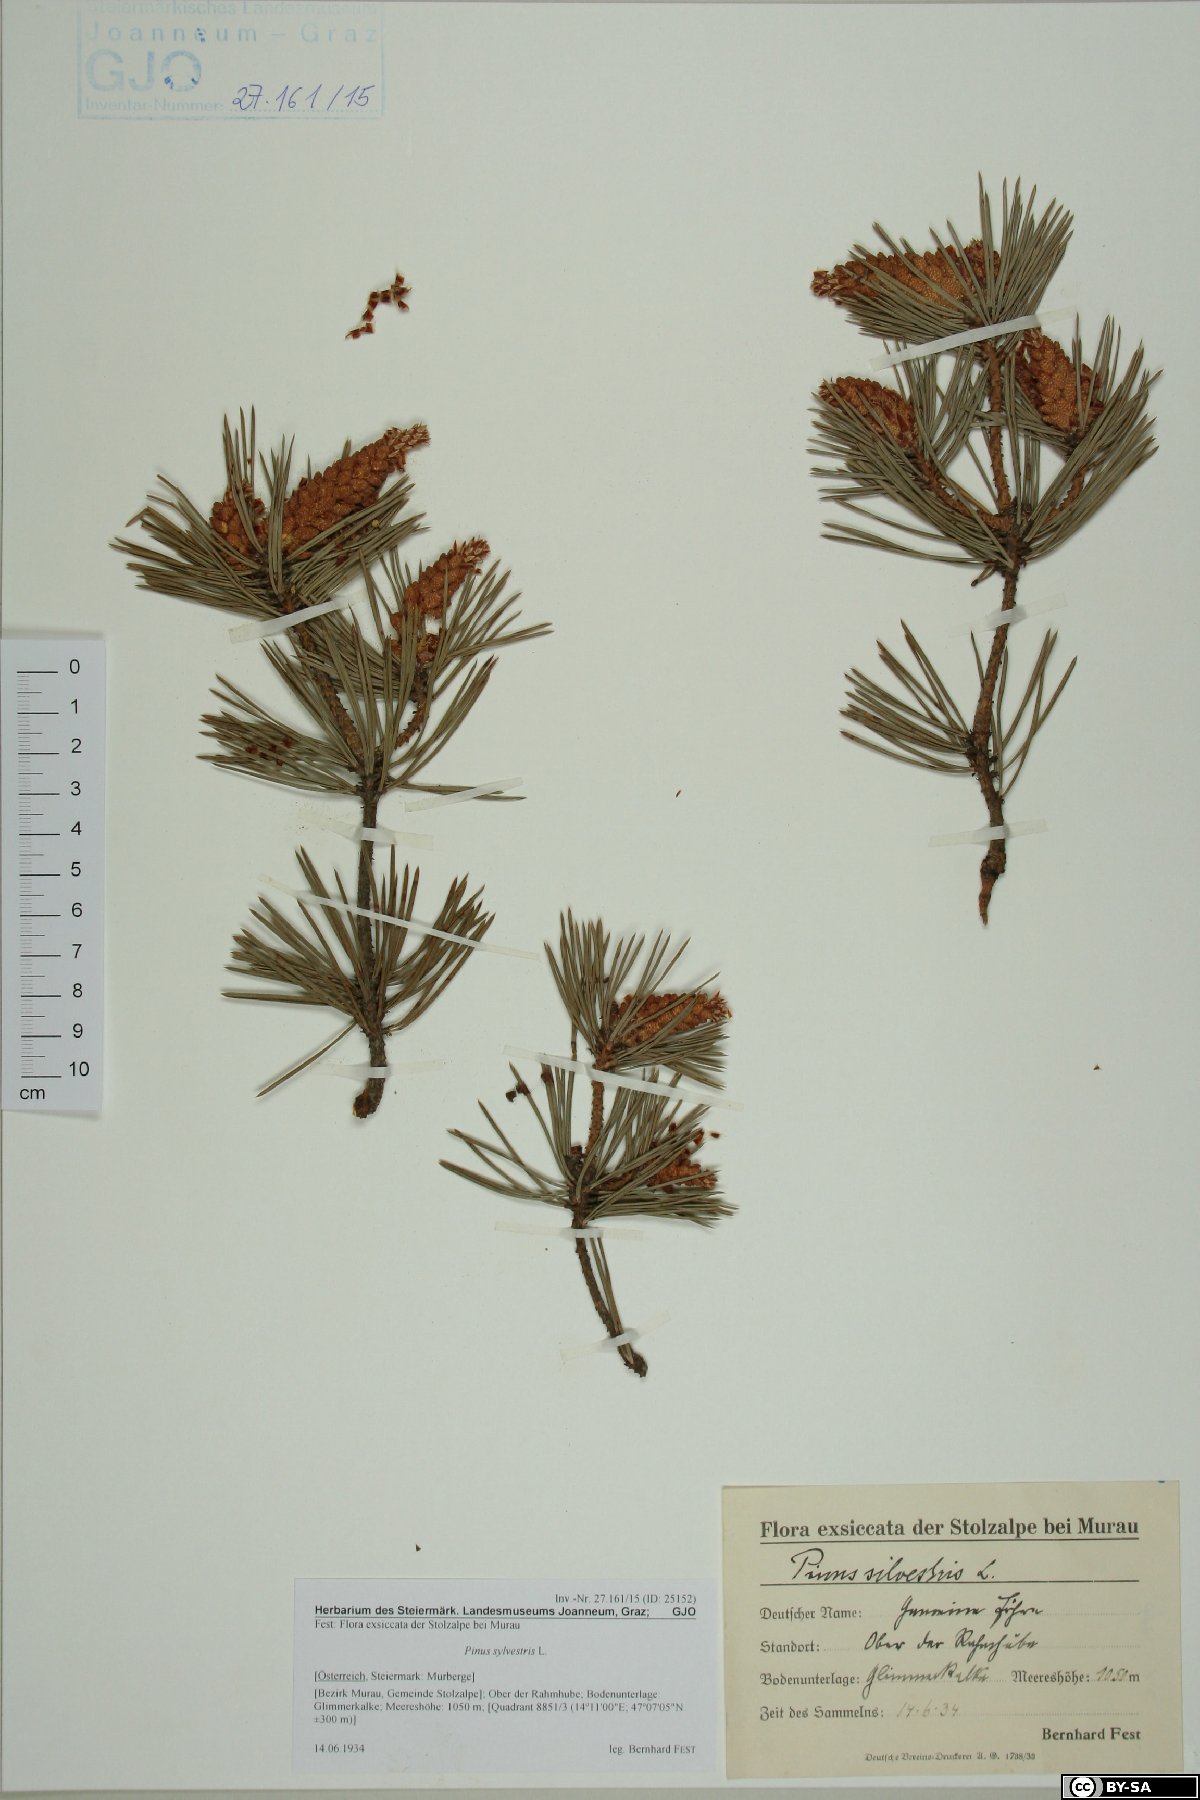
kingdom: Plantae
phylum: Tracheophyta
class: Pinopsida
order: Pinales
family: Pinaceae
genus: Pinus
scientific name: Pinus sylvestris
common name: Scots pine
